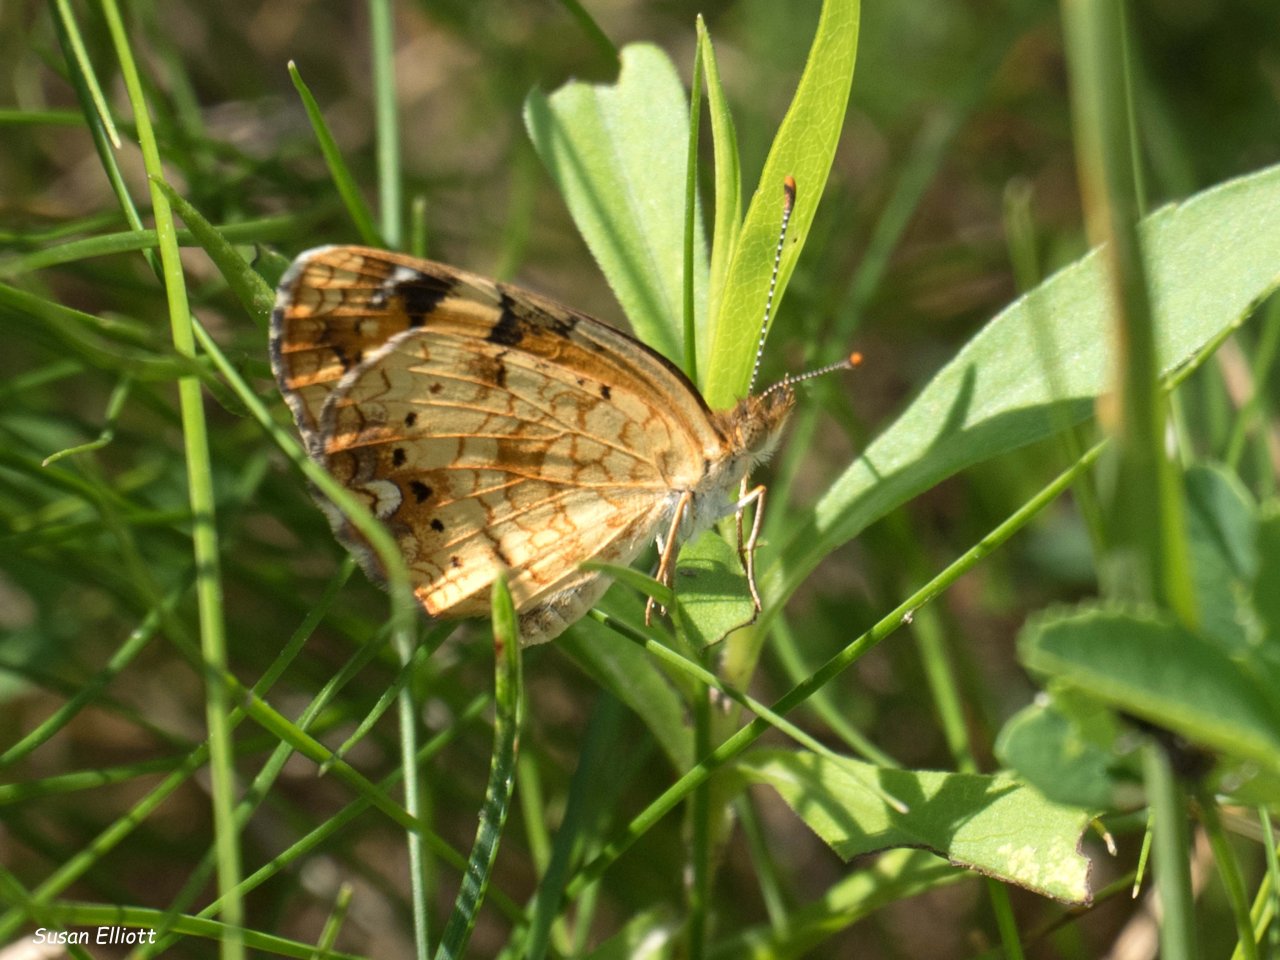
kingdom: Animalia
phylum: Arthropoda
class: Insecta
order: Lepidoptera
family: Nymphalidae
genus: Phyciodes
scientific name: Phyciodes
